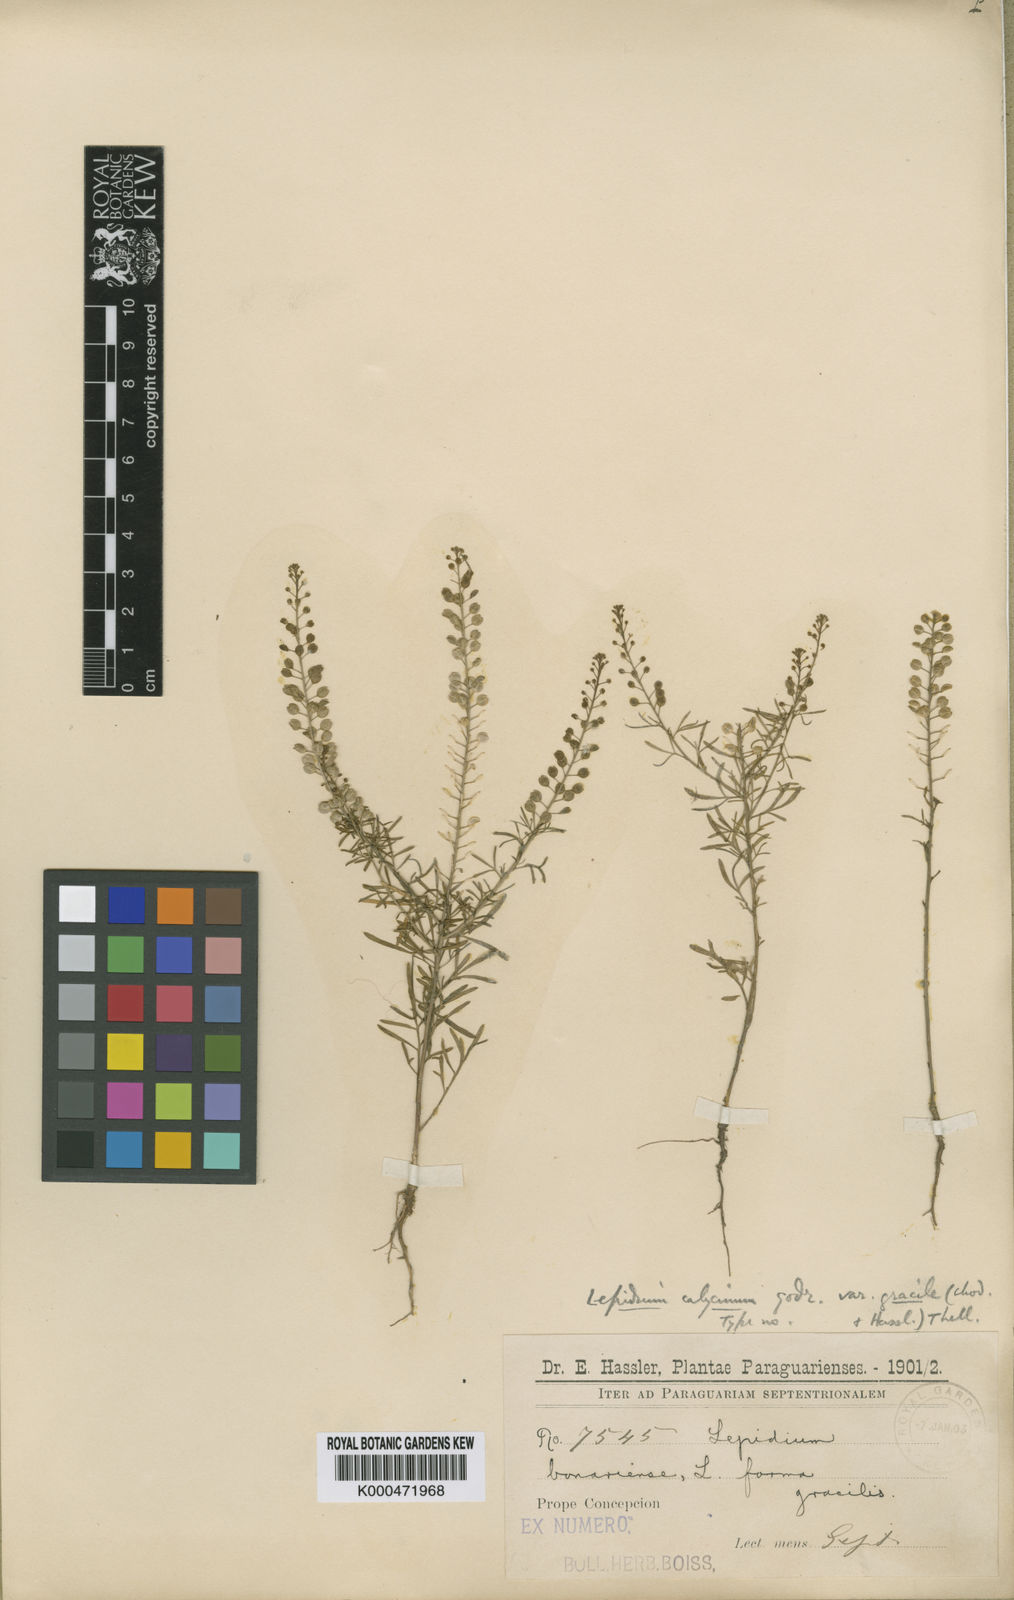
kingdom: Plantae
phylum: Tracheophyta
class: Magnoliopsida
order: Brassicales
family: Brassicaceae
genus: Lepidium
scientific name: Lepidium auriculatum
